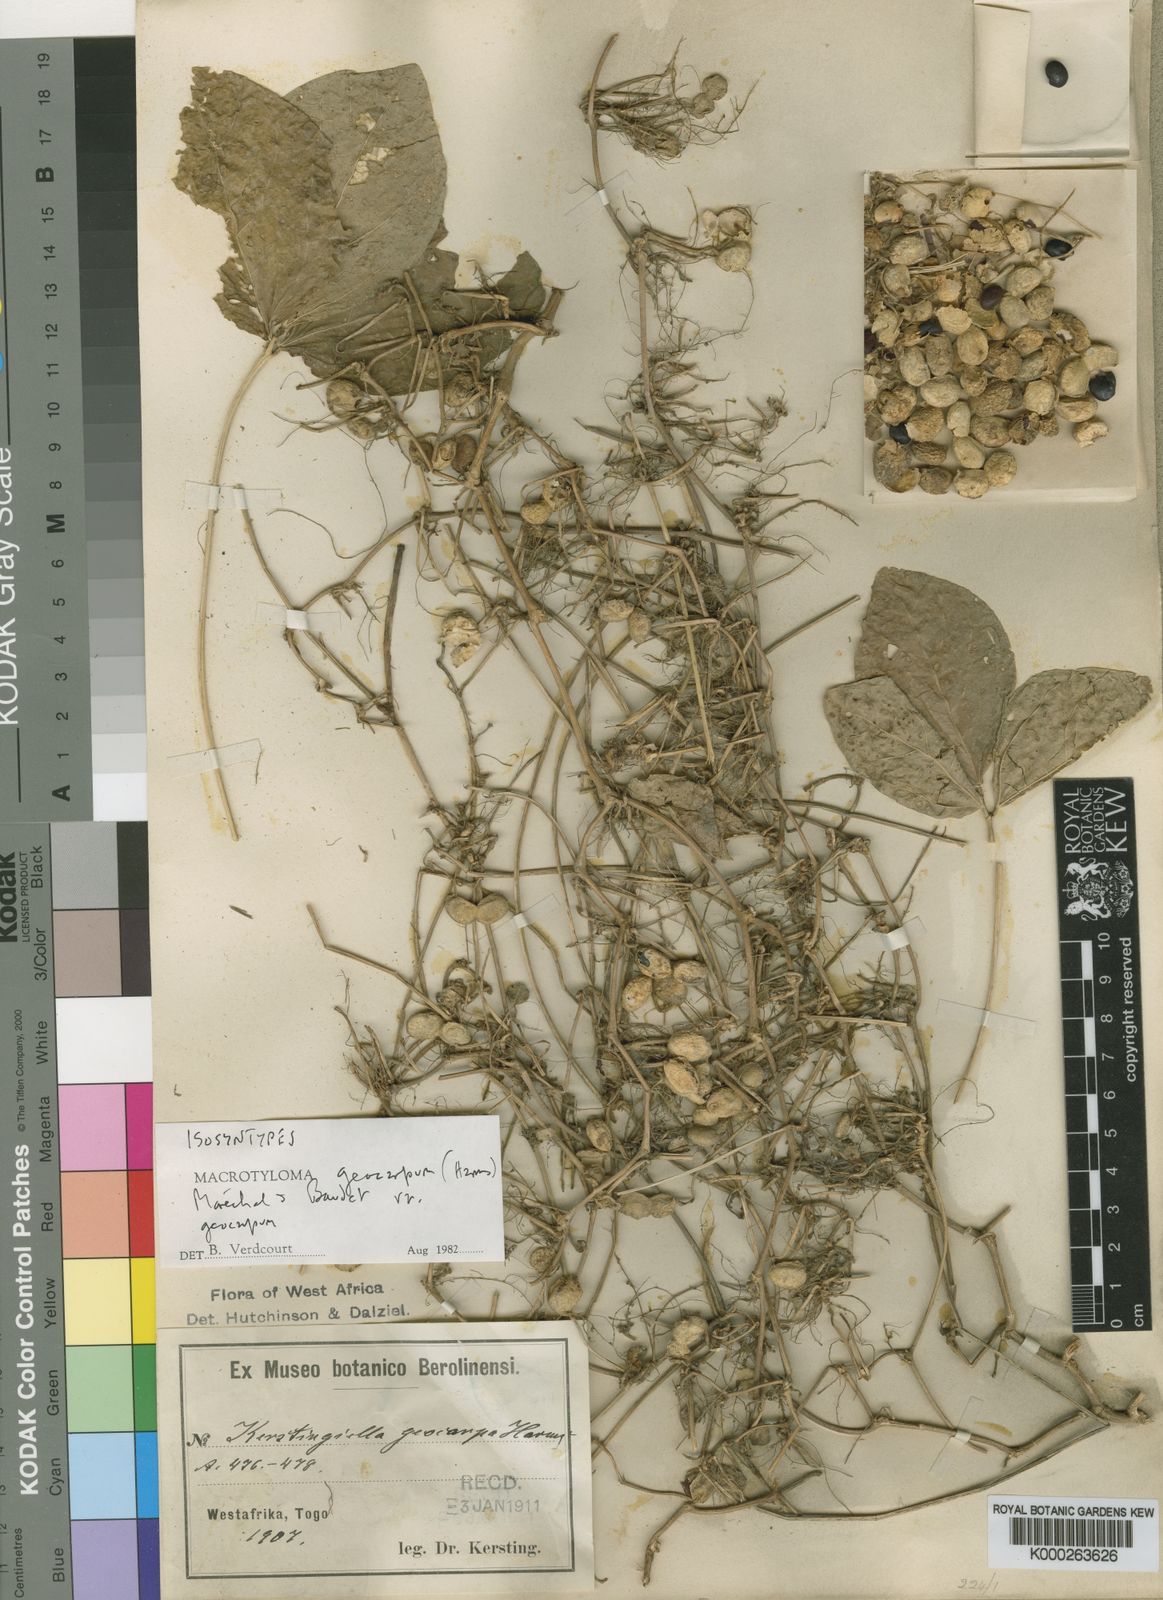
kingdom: Plantae
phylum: Tracheophyta
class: Magnoliopsida
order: Fabales
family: Fabaceae
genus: Macrotyloma
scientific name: Macrotyloma geocarpum
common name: Ground-bean
